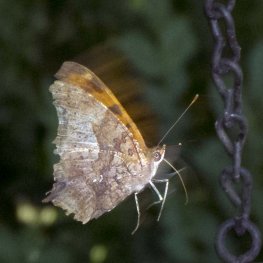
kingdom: Animalia
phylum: Arthropoda
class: Insecta
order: Lepidoptera
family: Nymphalidae
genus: Polygonia
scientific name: Polygonia interrogationis
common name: Question Mark
